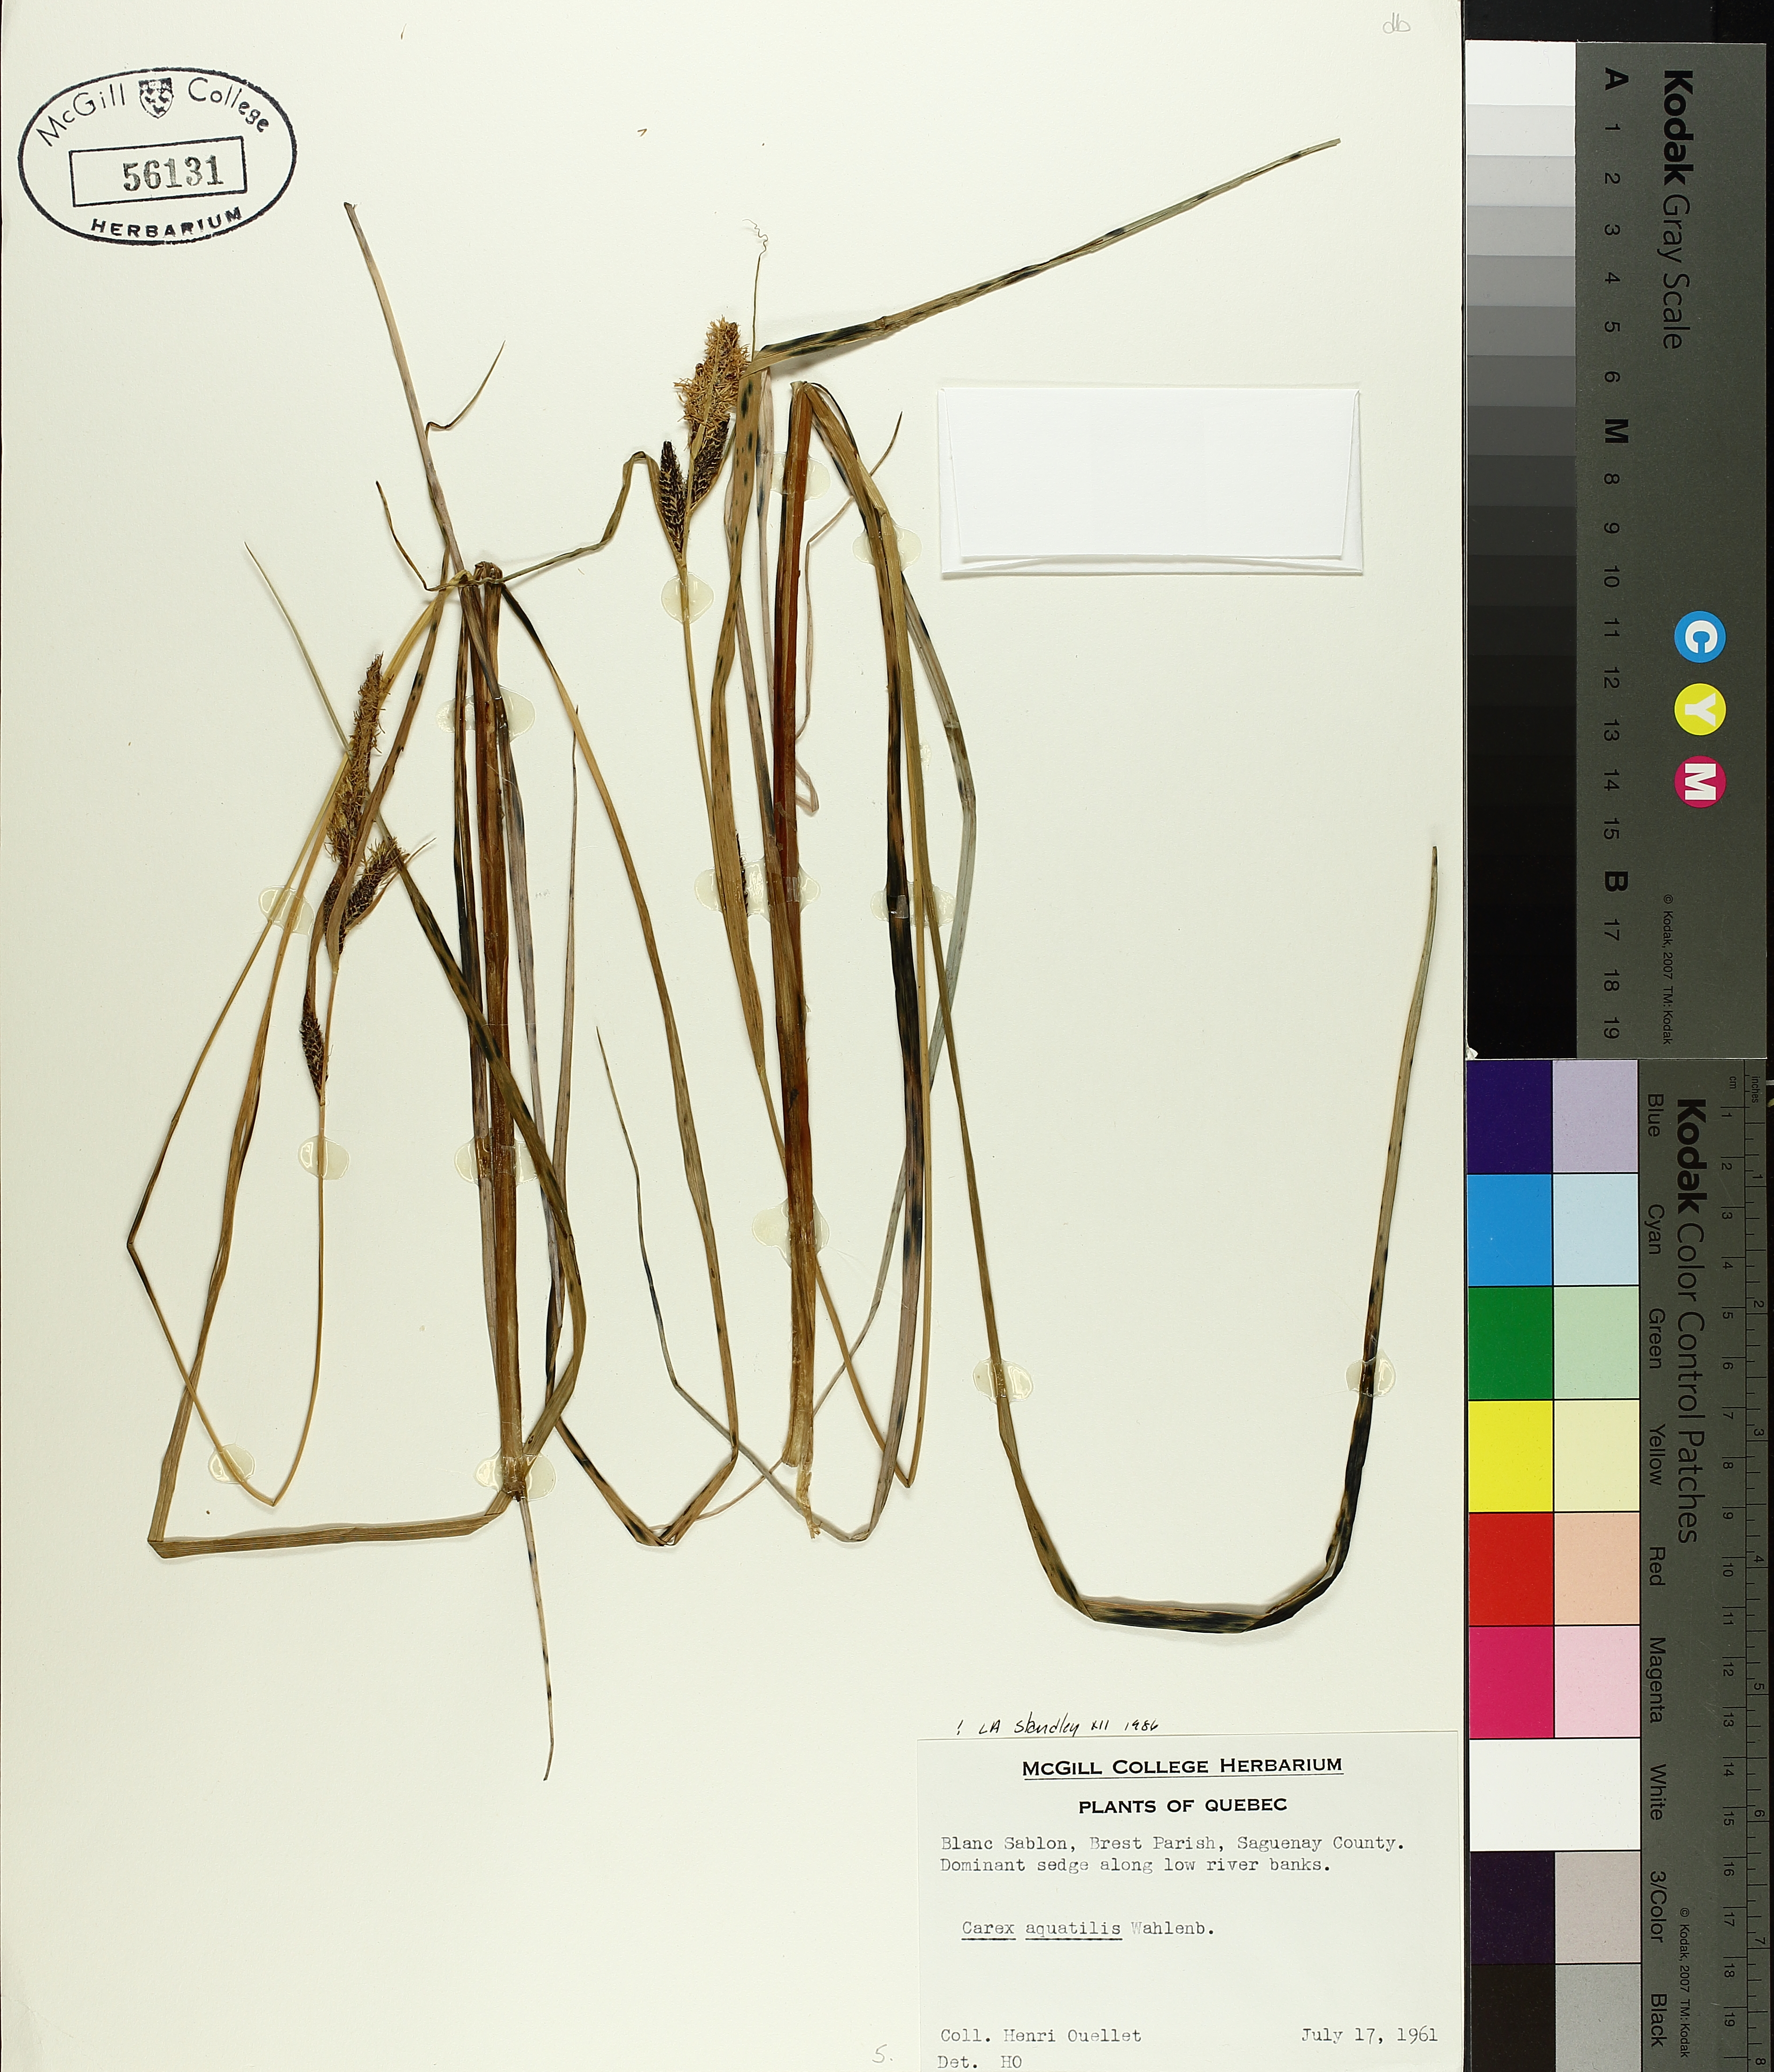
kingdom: Plantae
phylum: Tracheophyta
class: Liliopsida
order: Poales
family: Cyperaceae
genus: Carex
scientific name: Carex aquatilis
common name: Water sedge
